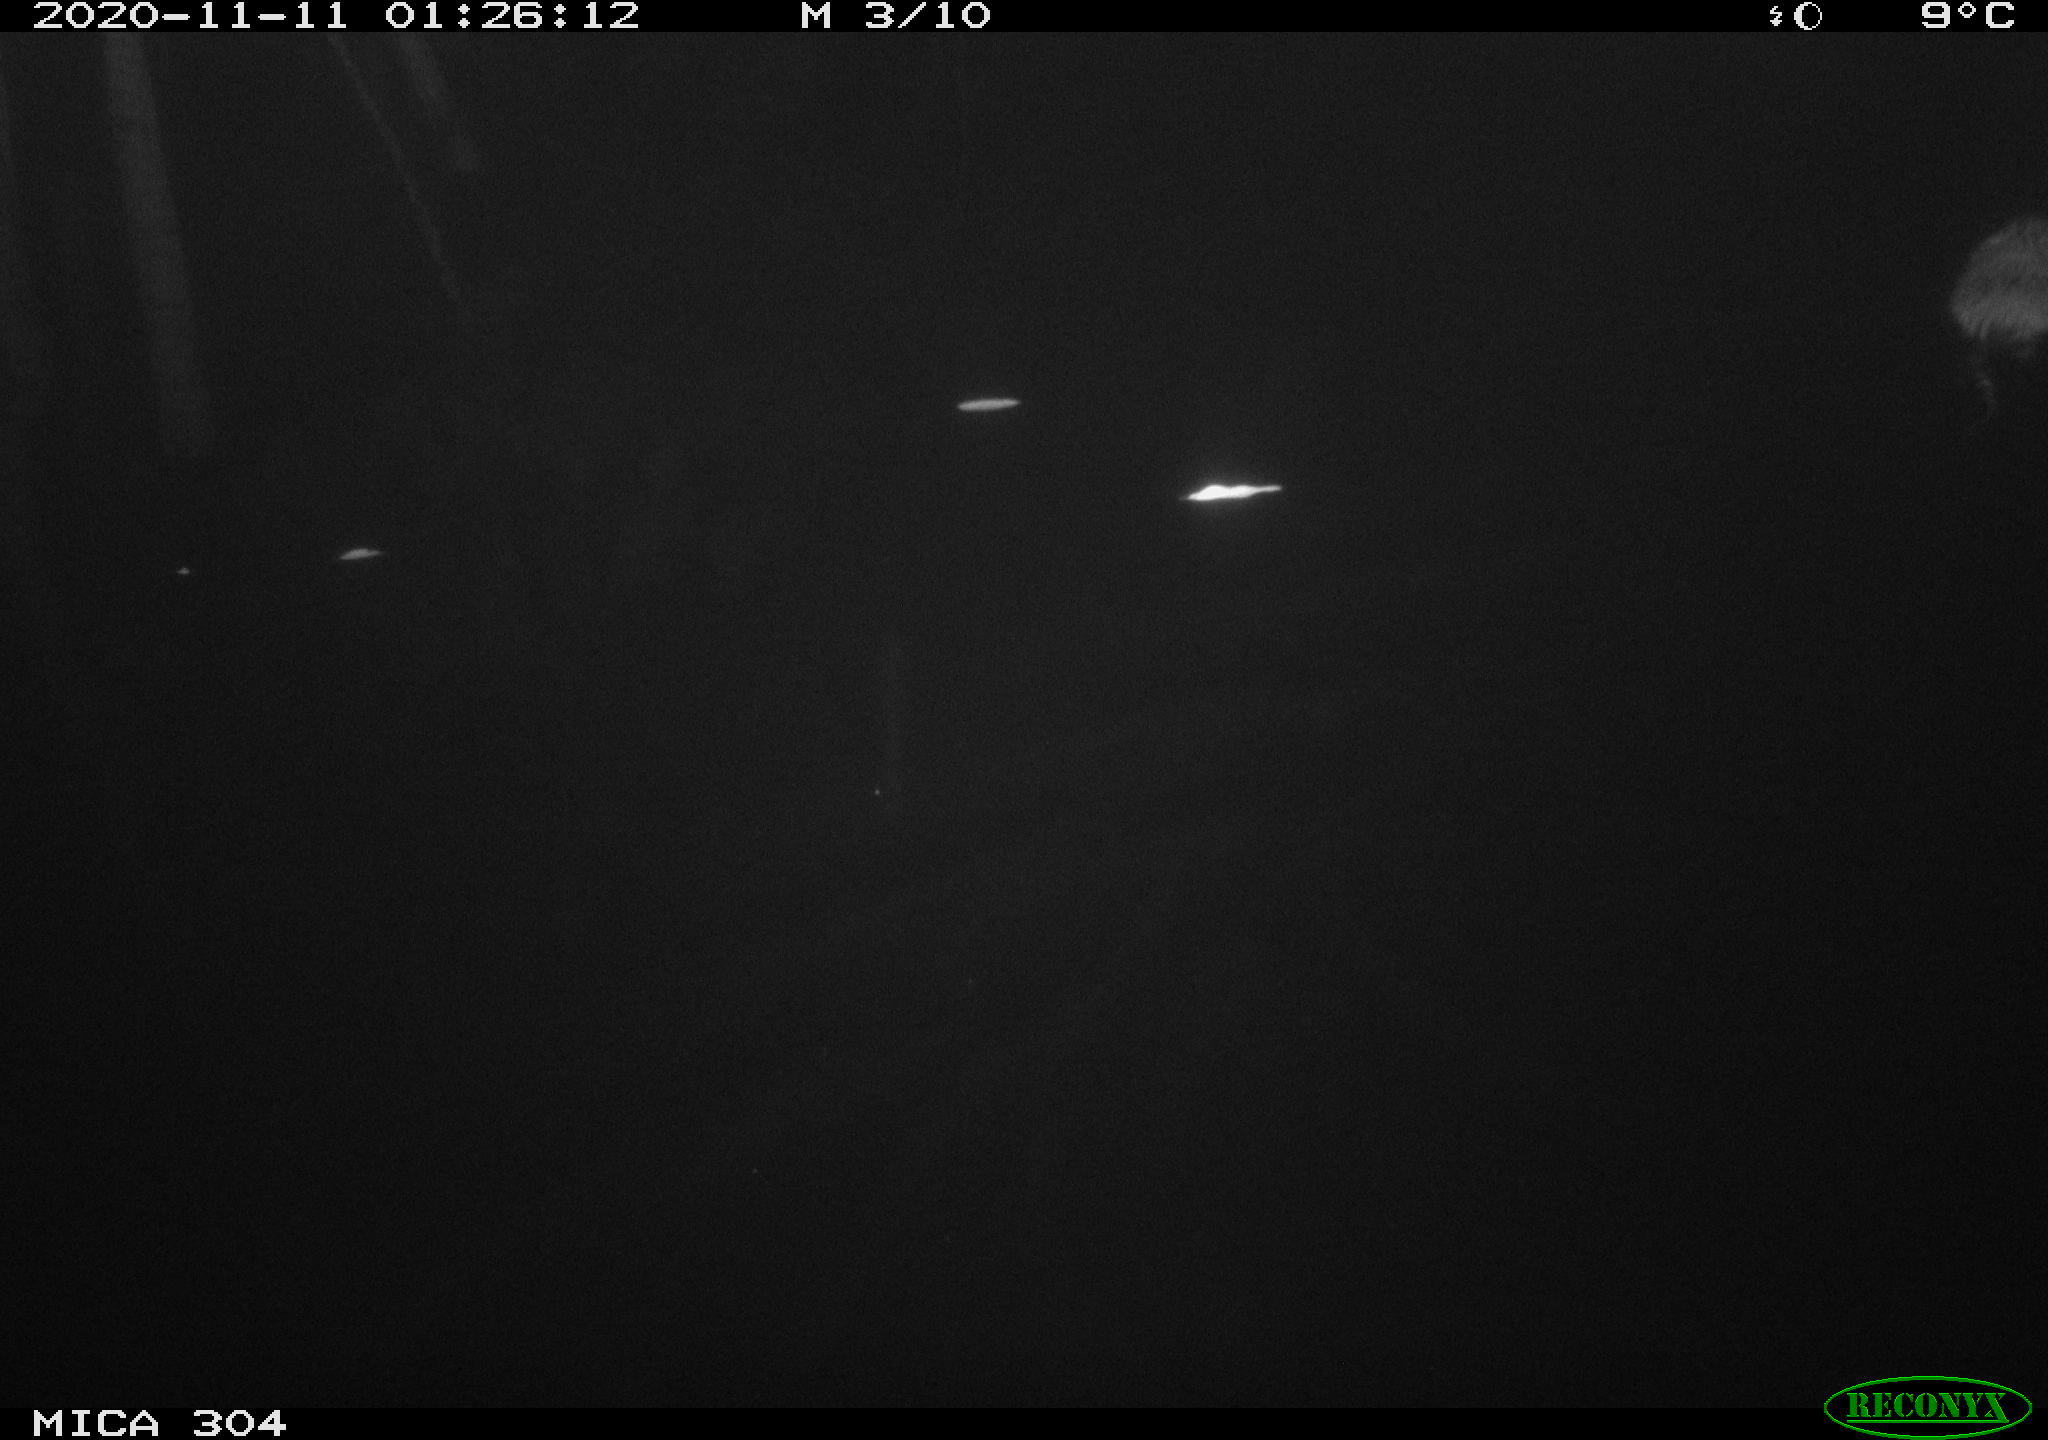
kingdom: Animalia
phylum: Chordata
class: Mammalia
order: Rodentia
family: Cricetidae
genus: Ondatra
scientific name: Ondatra zibethicus
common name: Muskrat
